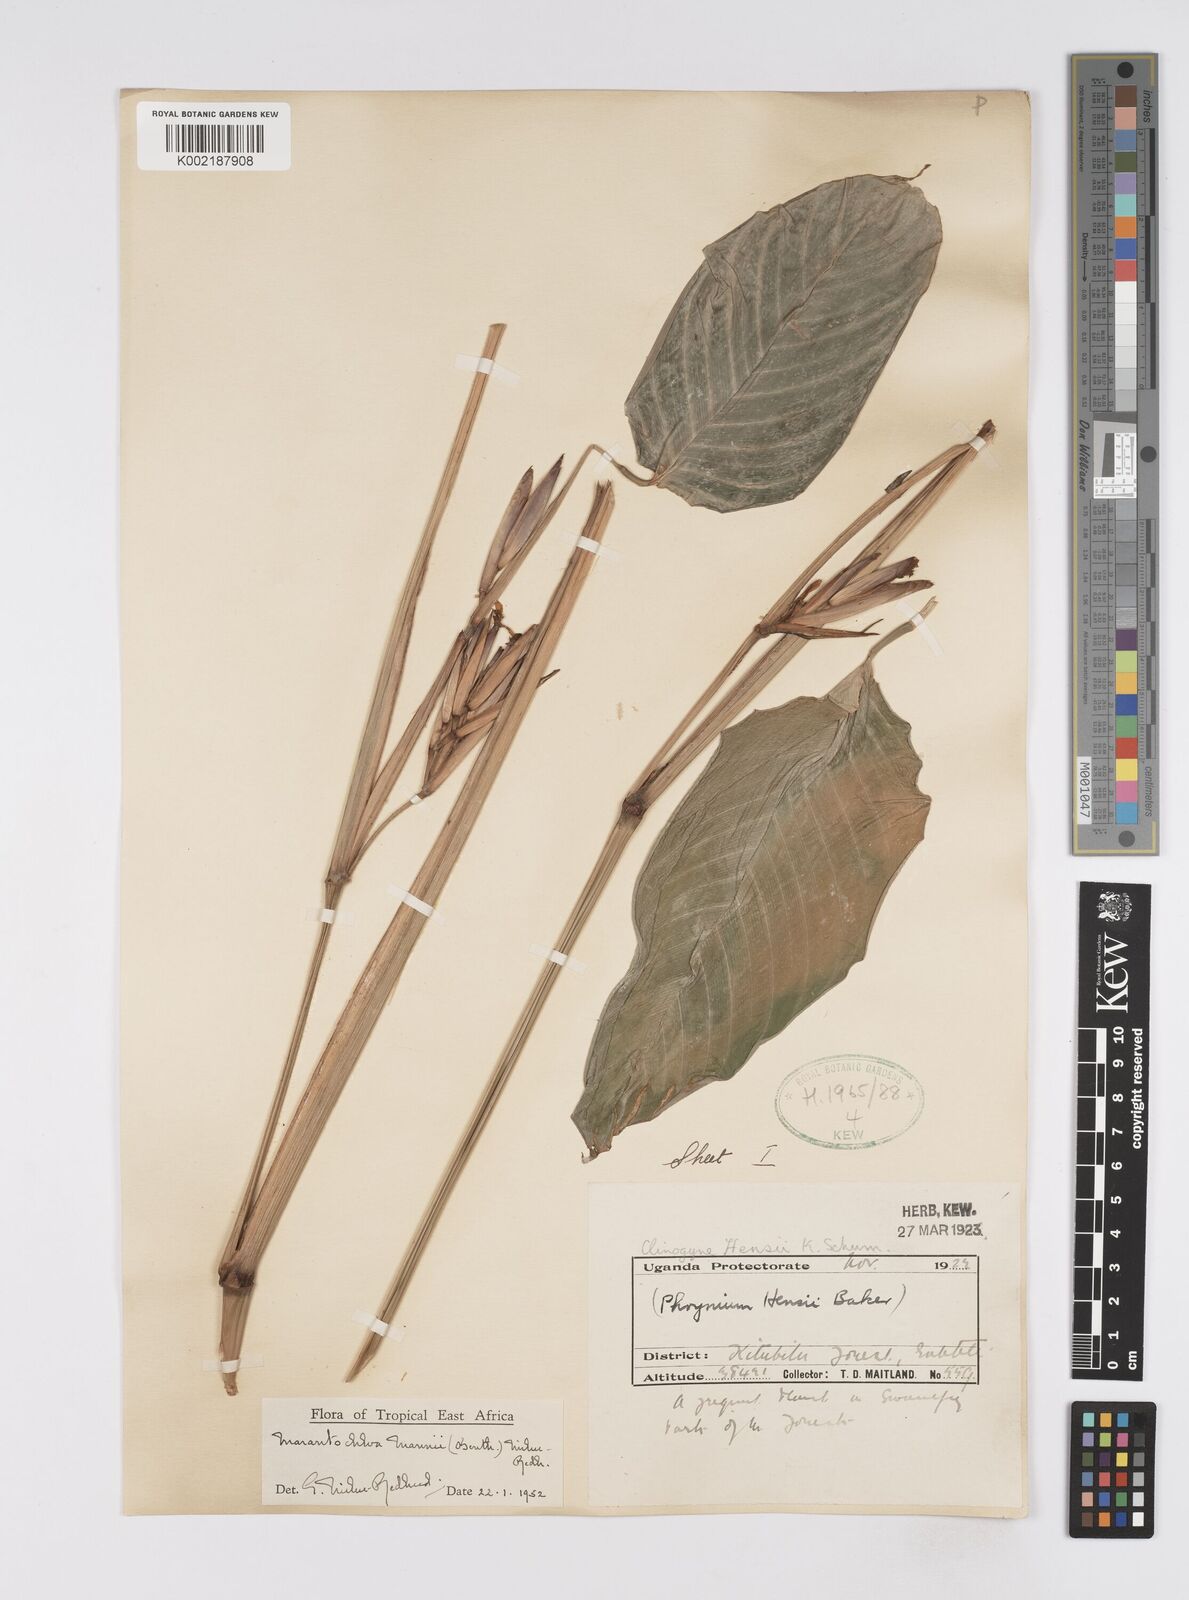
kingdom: Plantae
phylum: Tracheophyta
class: Liliopsida
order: Zingiberales
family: Marantaceae
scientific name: Marantaceae
